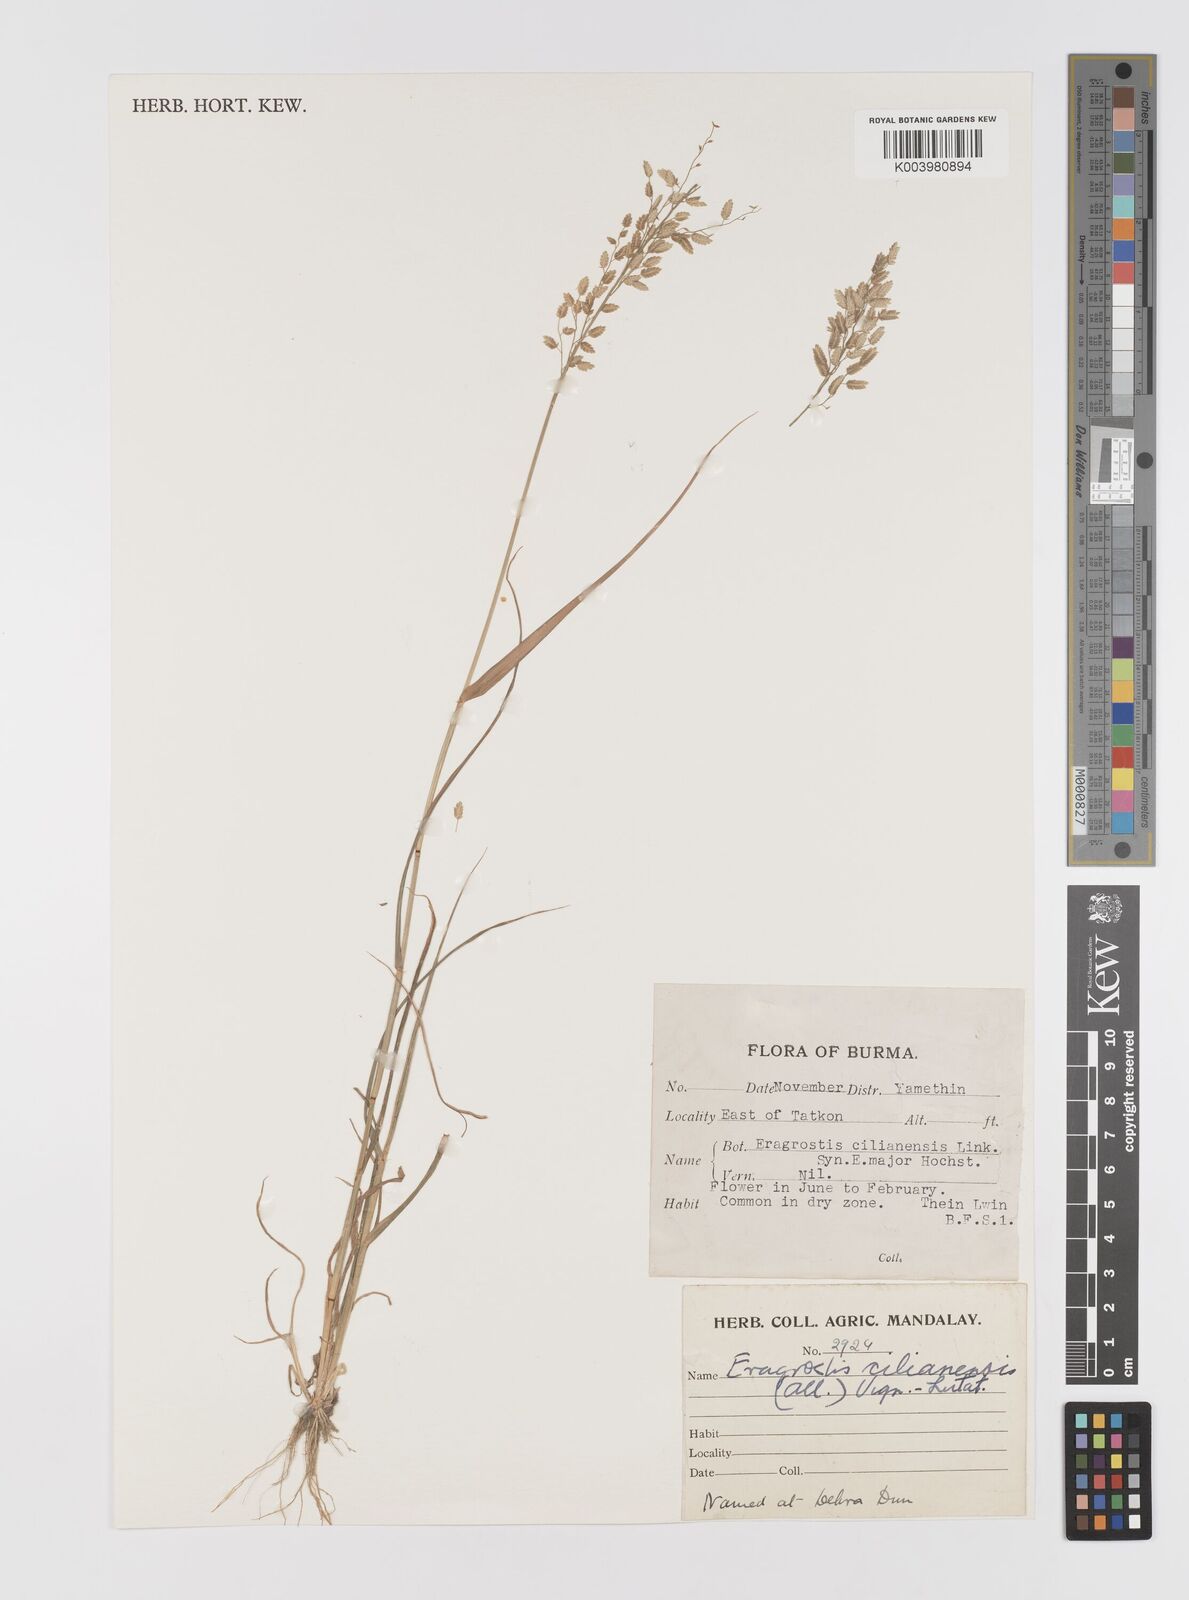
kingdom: Plantae
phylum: Tracheophyta
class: Liliopsida
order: Poales
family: Poaceae
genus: Eragrostis
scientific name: Eragrostis cilianensis
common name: Stinkgrass
